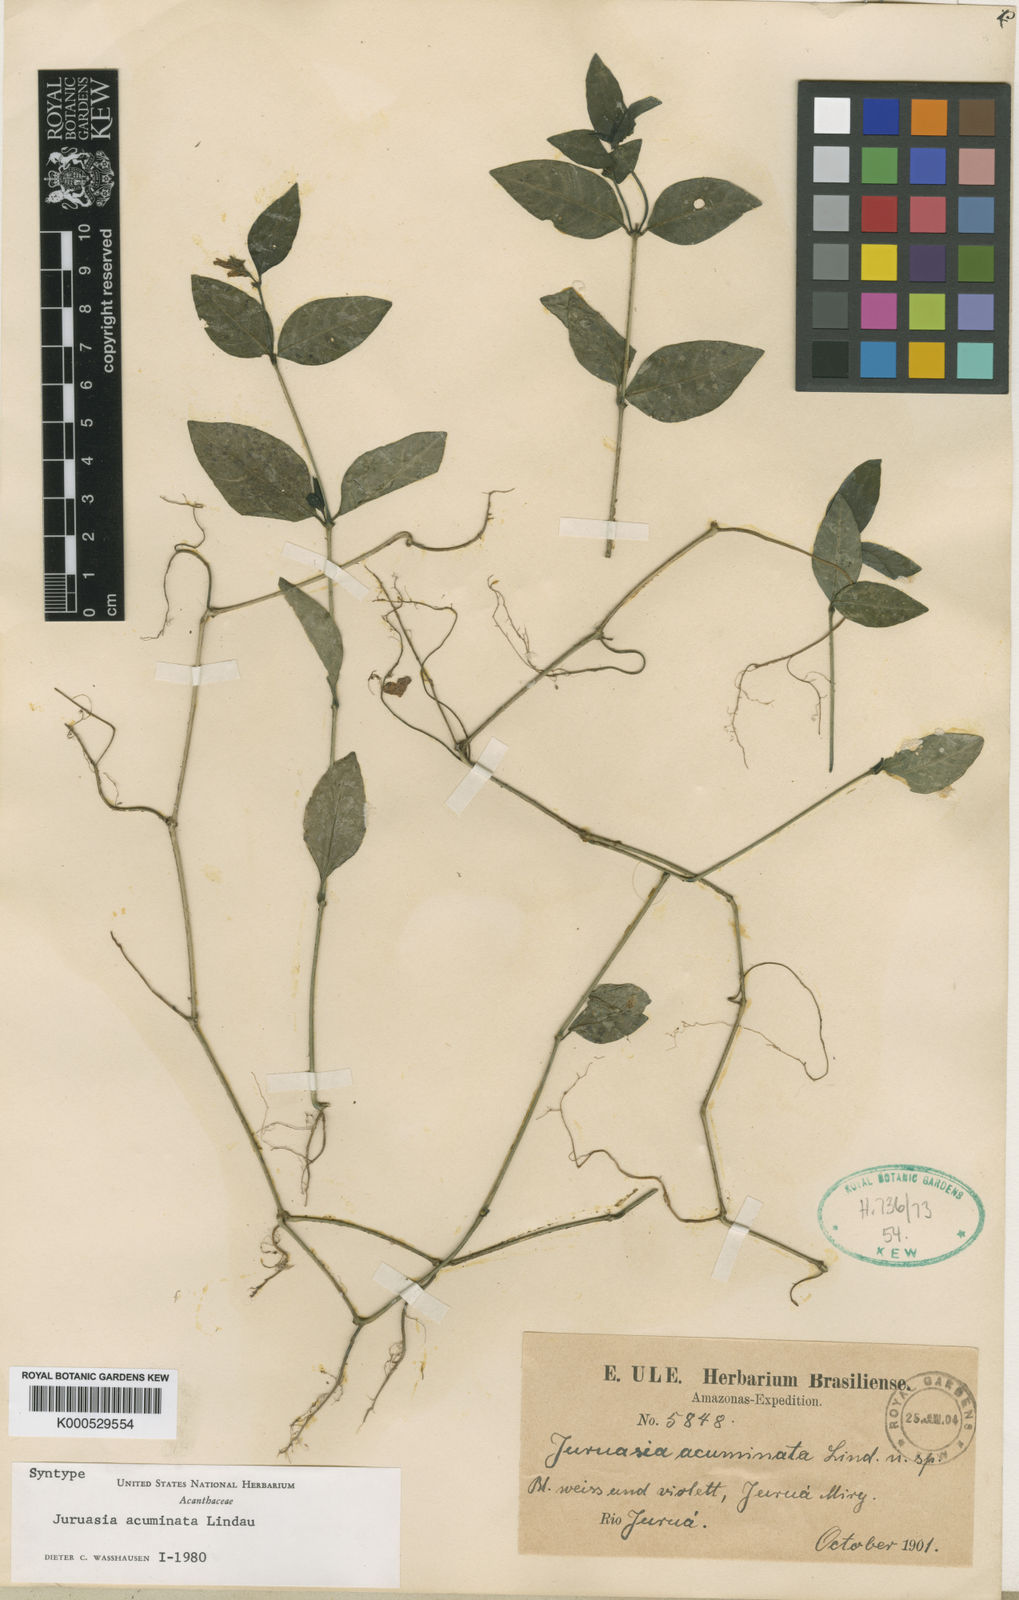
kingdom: Plantae
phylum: Tracheophyta
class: Magnoliopsida
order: Lamiales
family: Acanthaceae
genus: Herpetacanthus
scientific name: Herpetacanthus acuminatus
